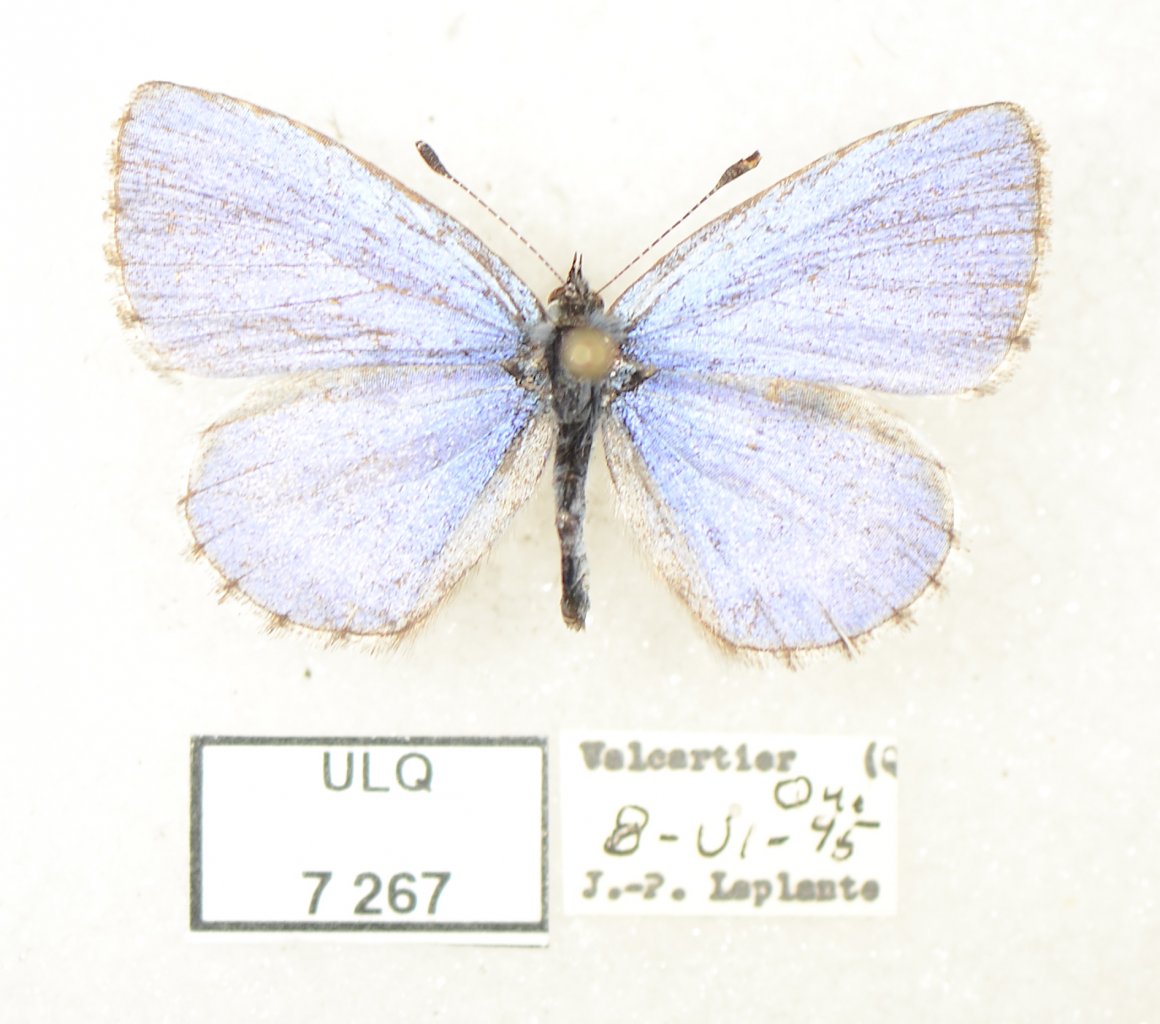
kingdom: Animalia
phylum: Arthropoda
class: Insecta
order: Lepidoptera
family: Lycaenidae
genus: Celastrina
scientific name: Celastrina lucia
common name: Northern Spring Azure
